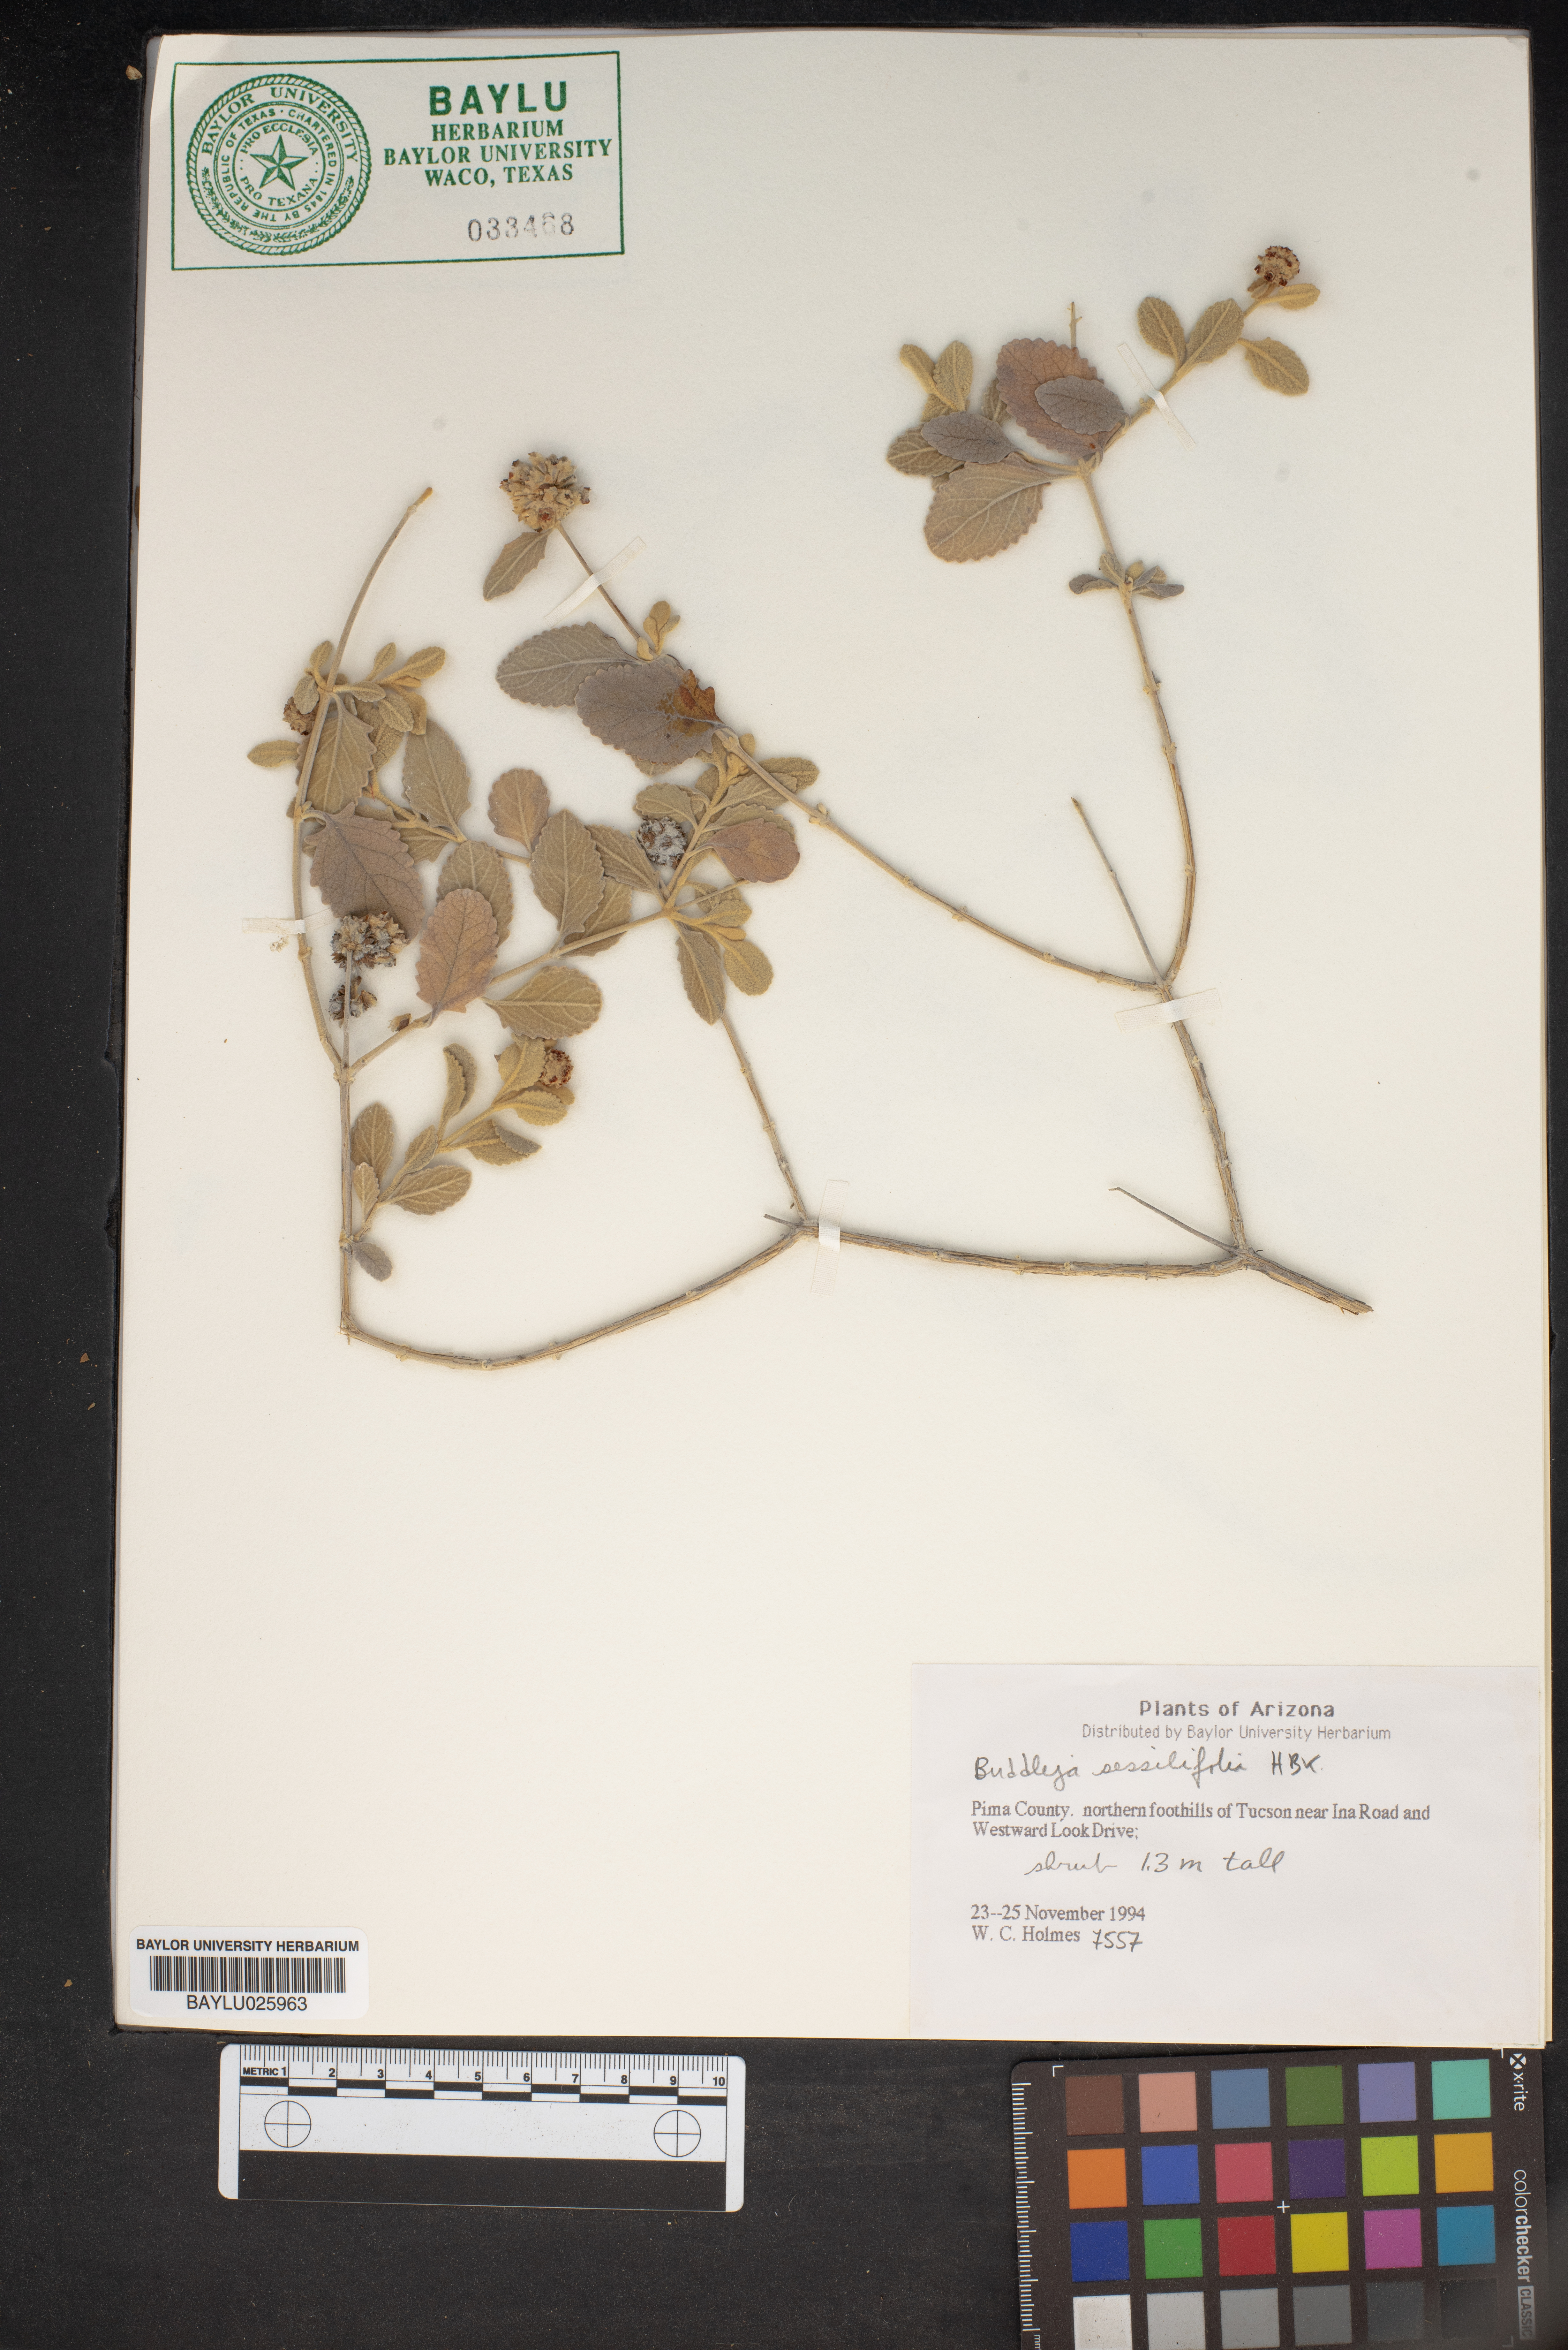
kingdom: Plantae
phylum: Tracheophyta
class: Magnoliopsida
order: Lamiales
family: Scrophulariaceae
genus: Buddleja
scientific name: Buddleja colvilei
